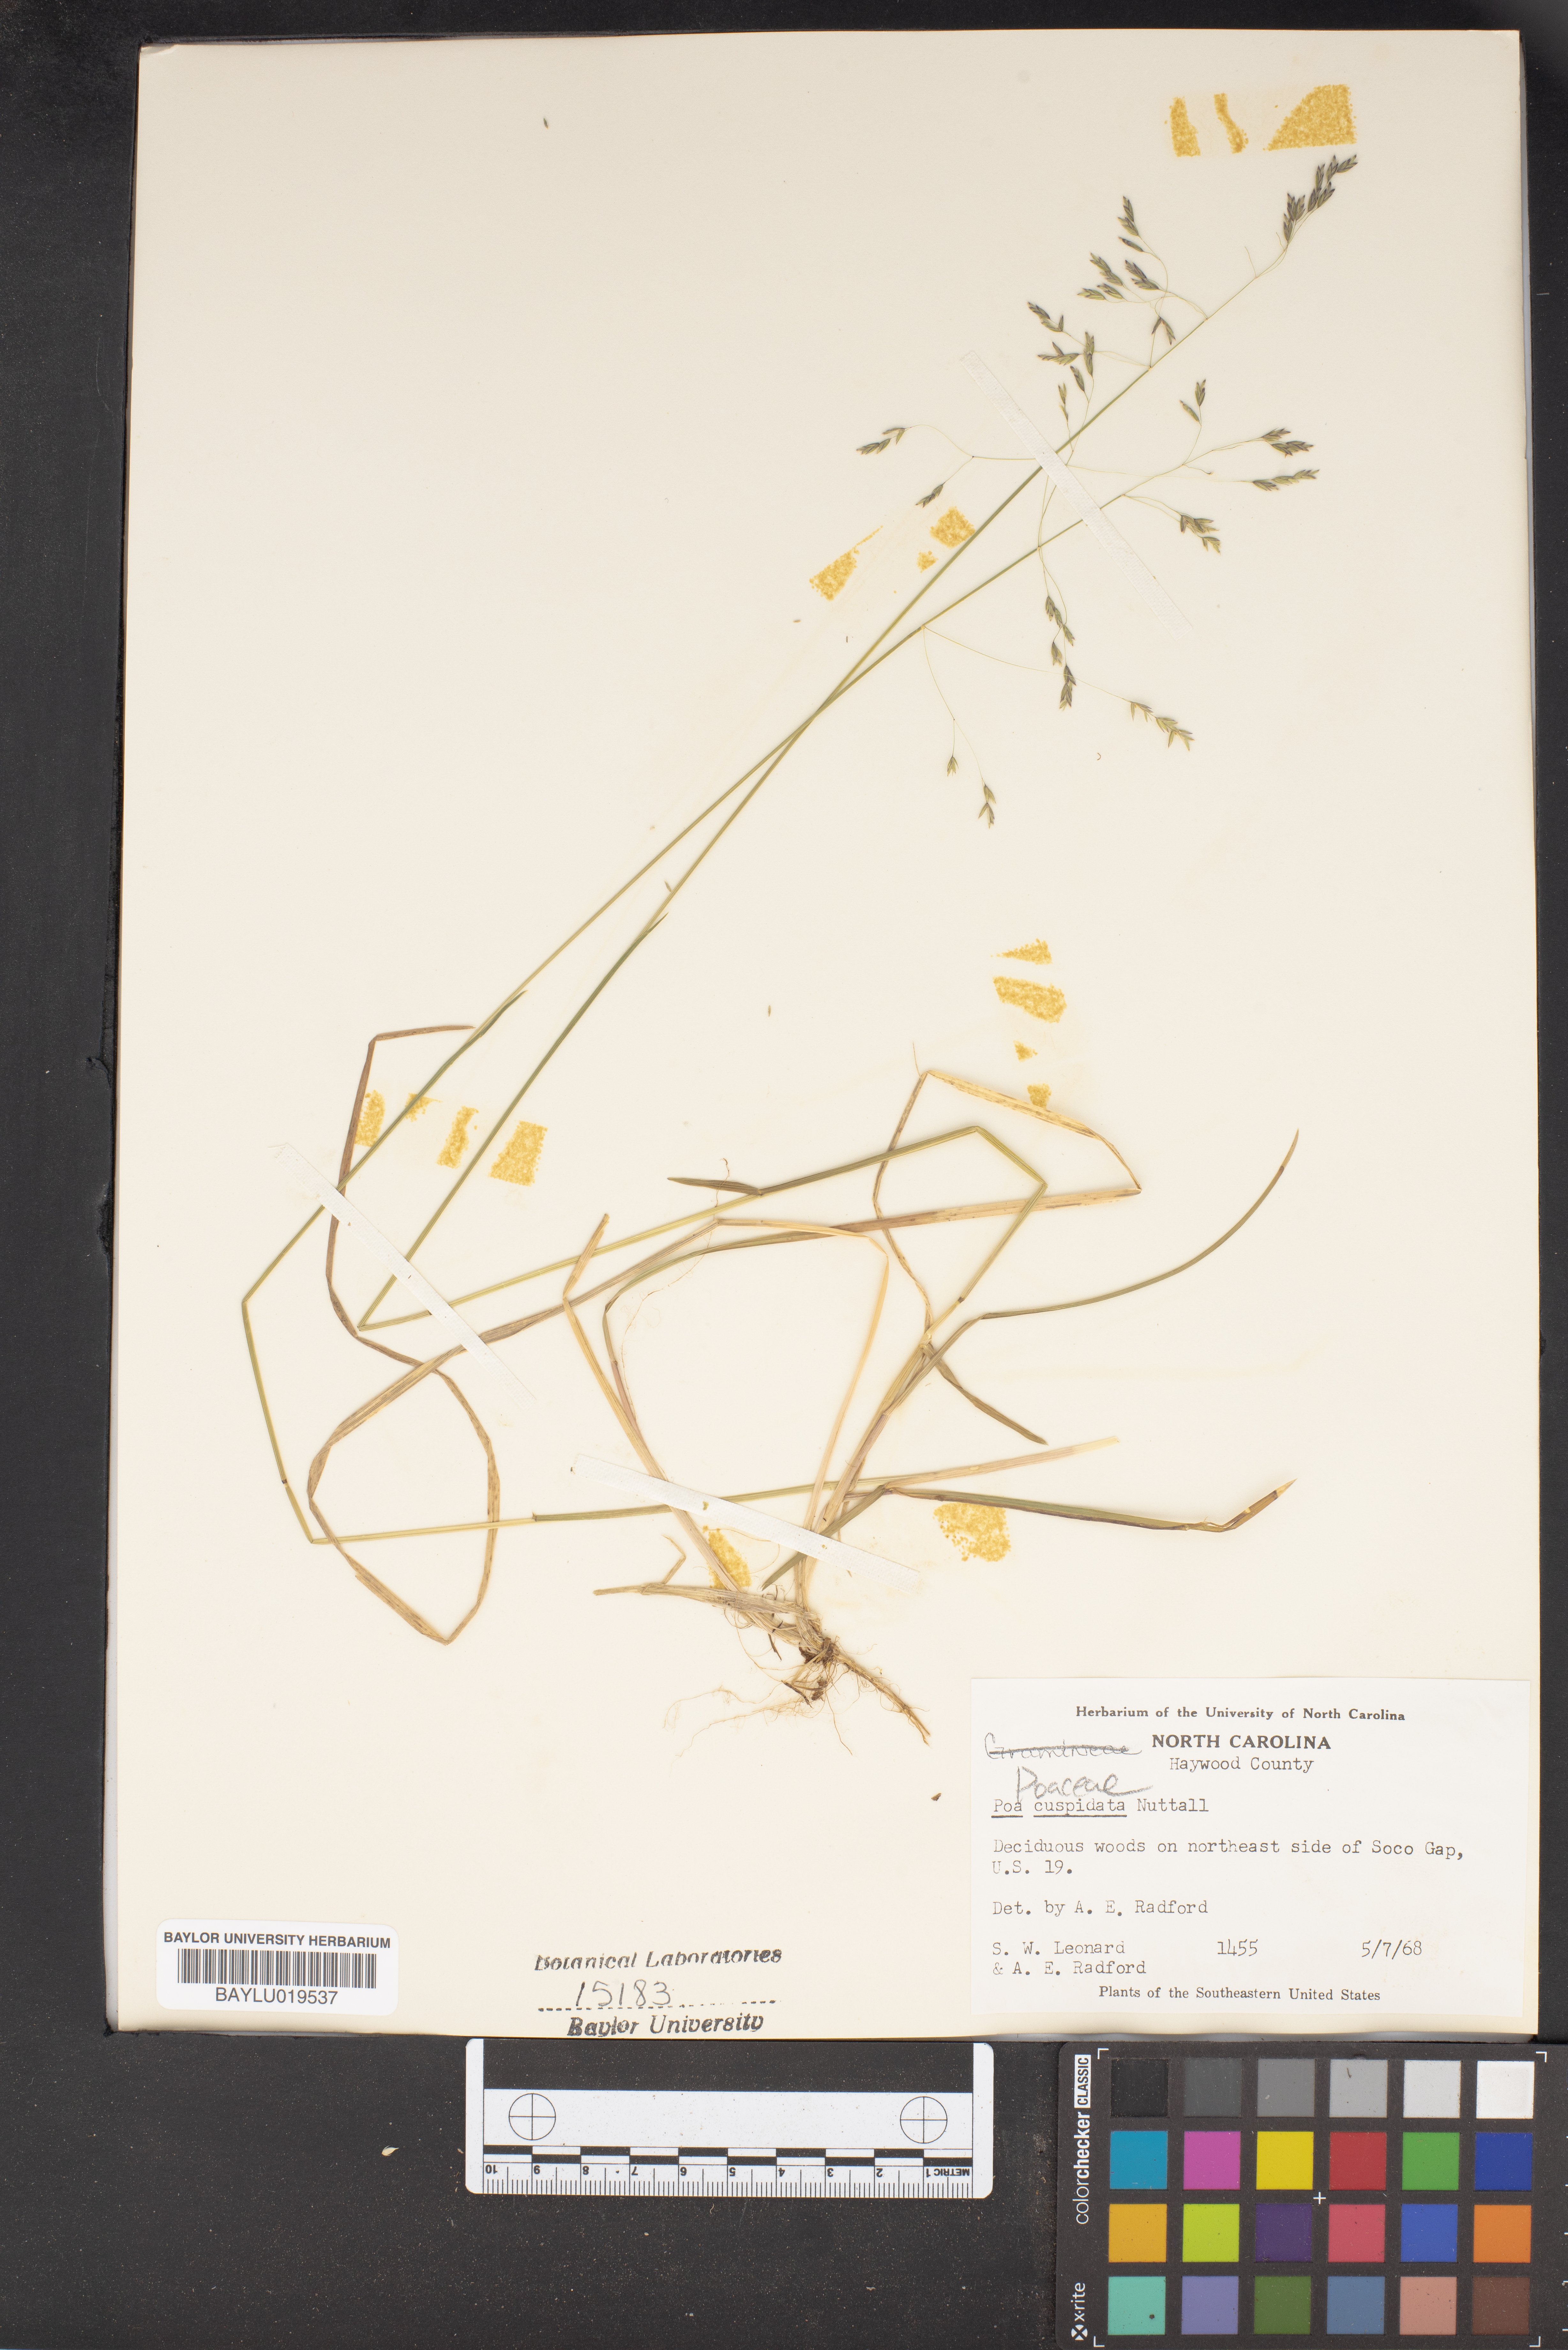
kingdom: Plantae
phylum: Tracheophyta
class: Liliopsida
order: Poales
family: Poaceae
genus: Poa
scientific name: Poa cuspidata
